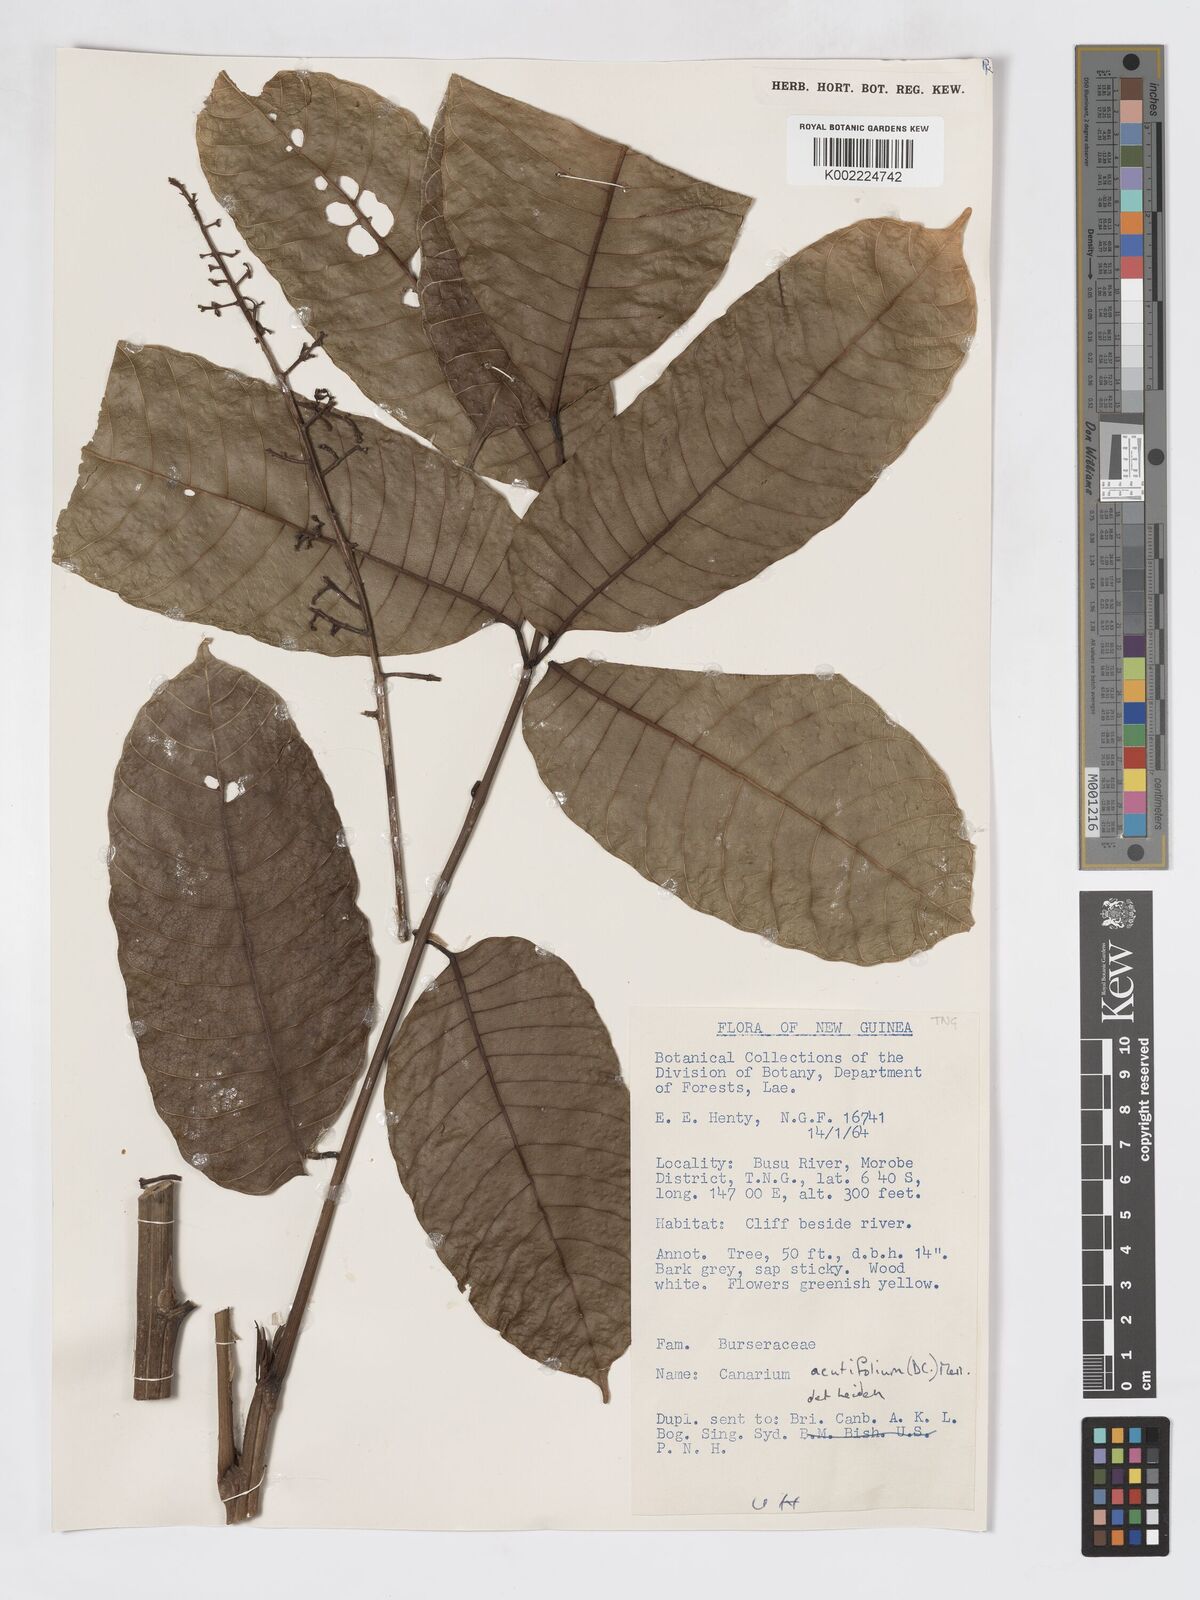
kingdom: Plantae
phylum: Tracheophyta
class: Magnoliopsida
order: Sapindales
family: Burseraceae
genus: Canarium
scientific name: Canarium acutifolium
